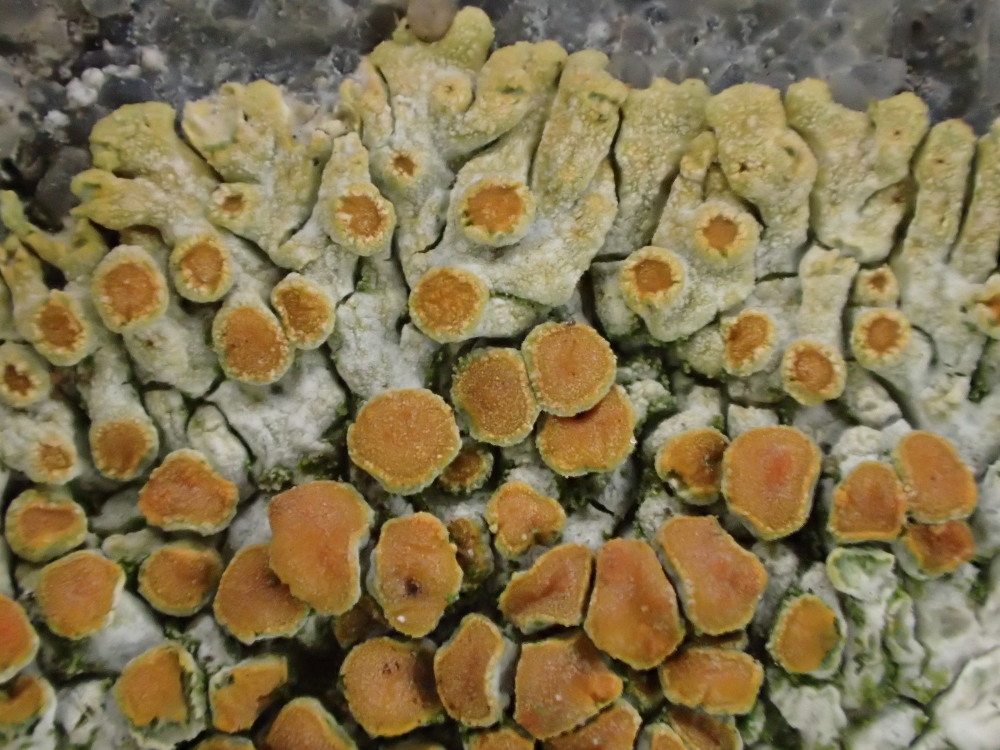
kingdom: Fungi
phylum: Ascomycota
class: Lecanoromycetes
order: Teloschistales
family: Teloschistaceae
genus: Calogaya
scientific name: Calogaya pusilla
